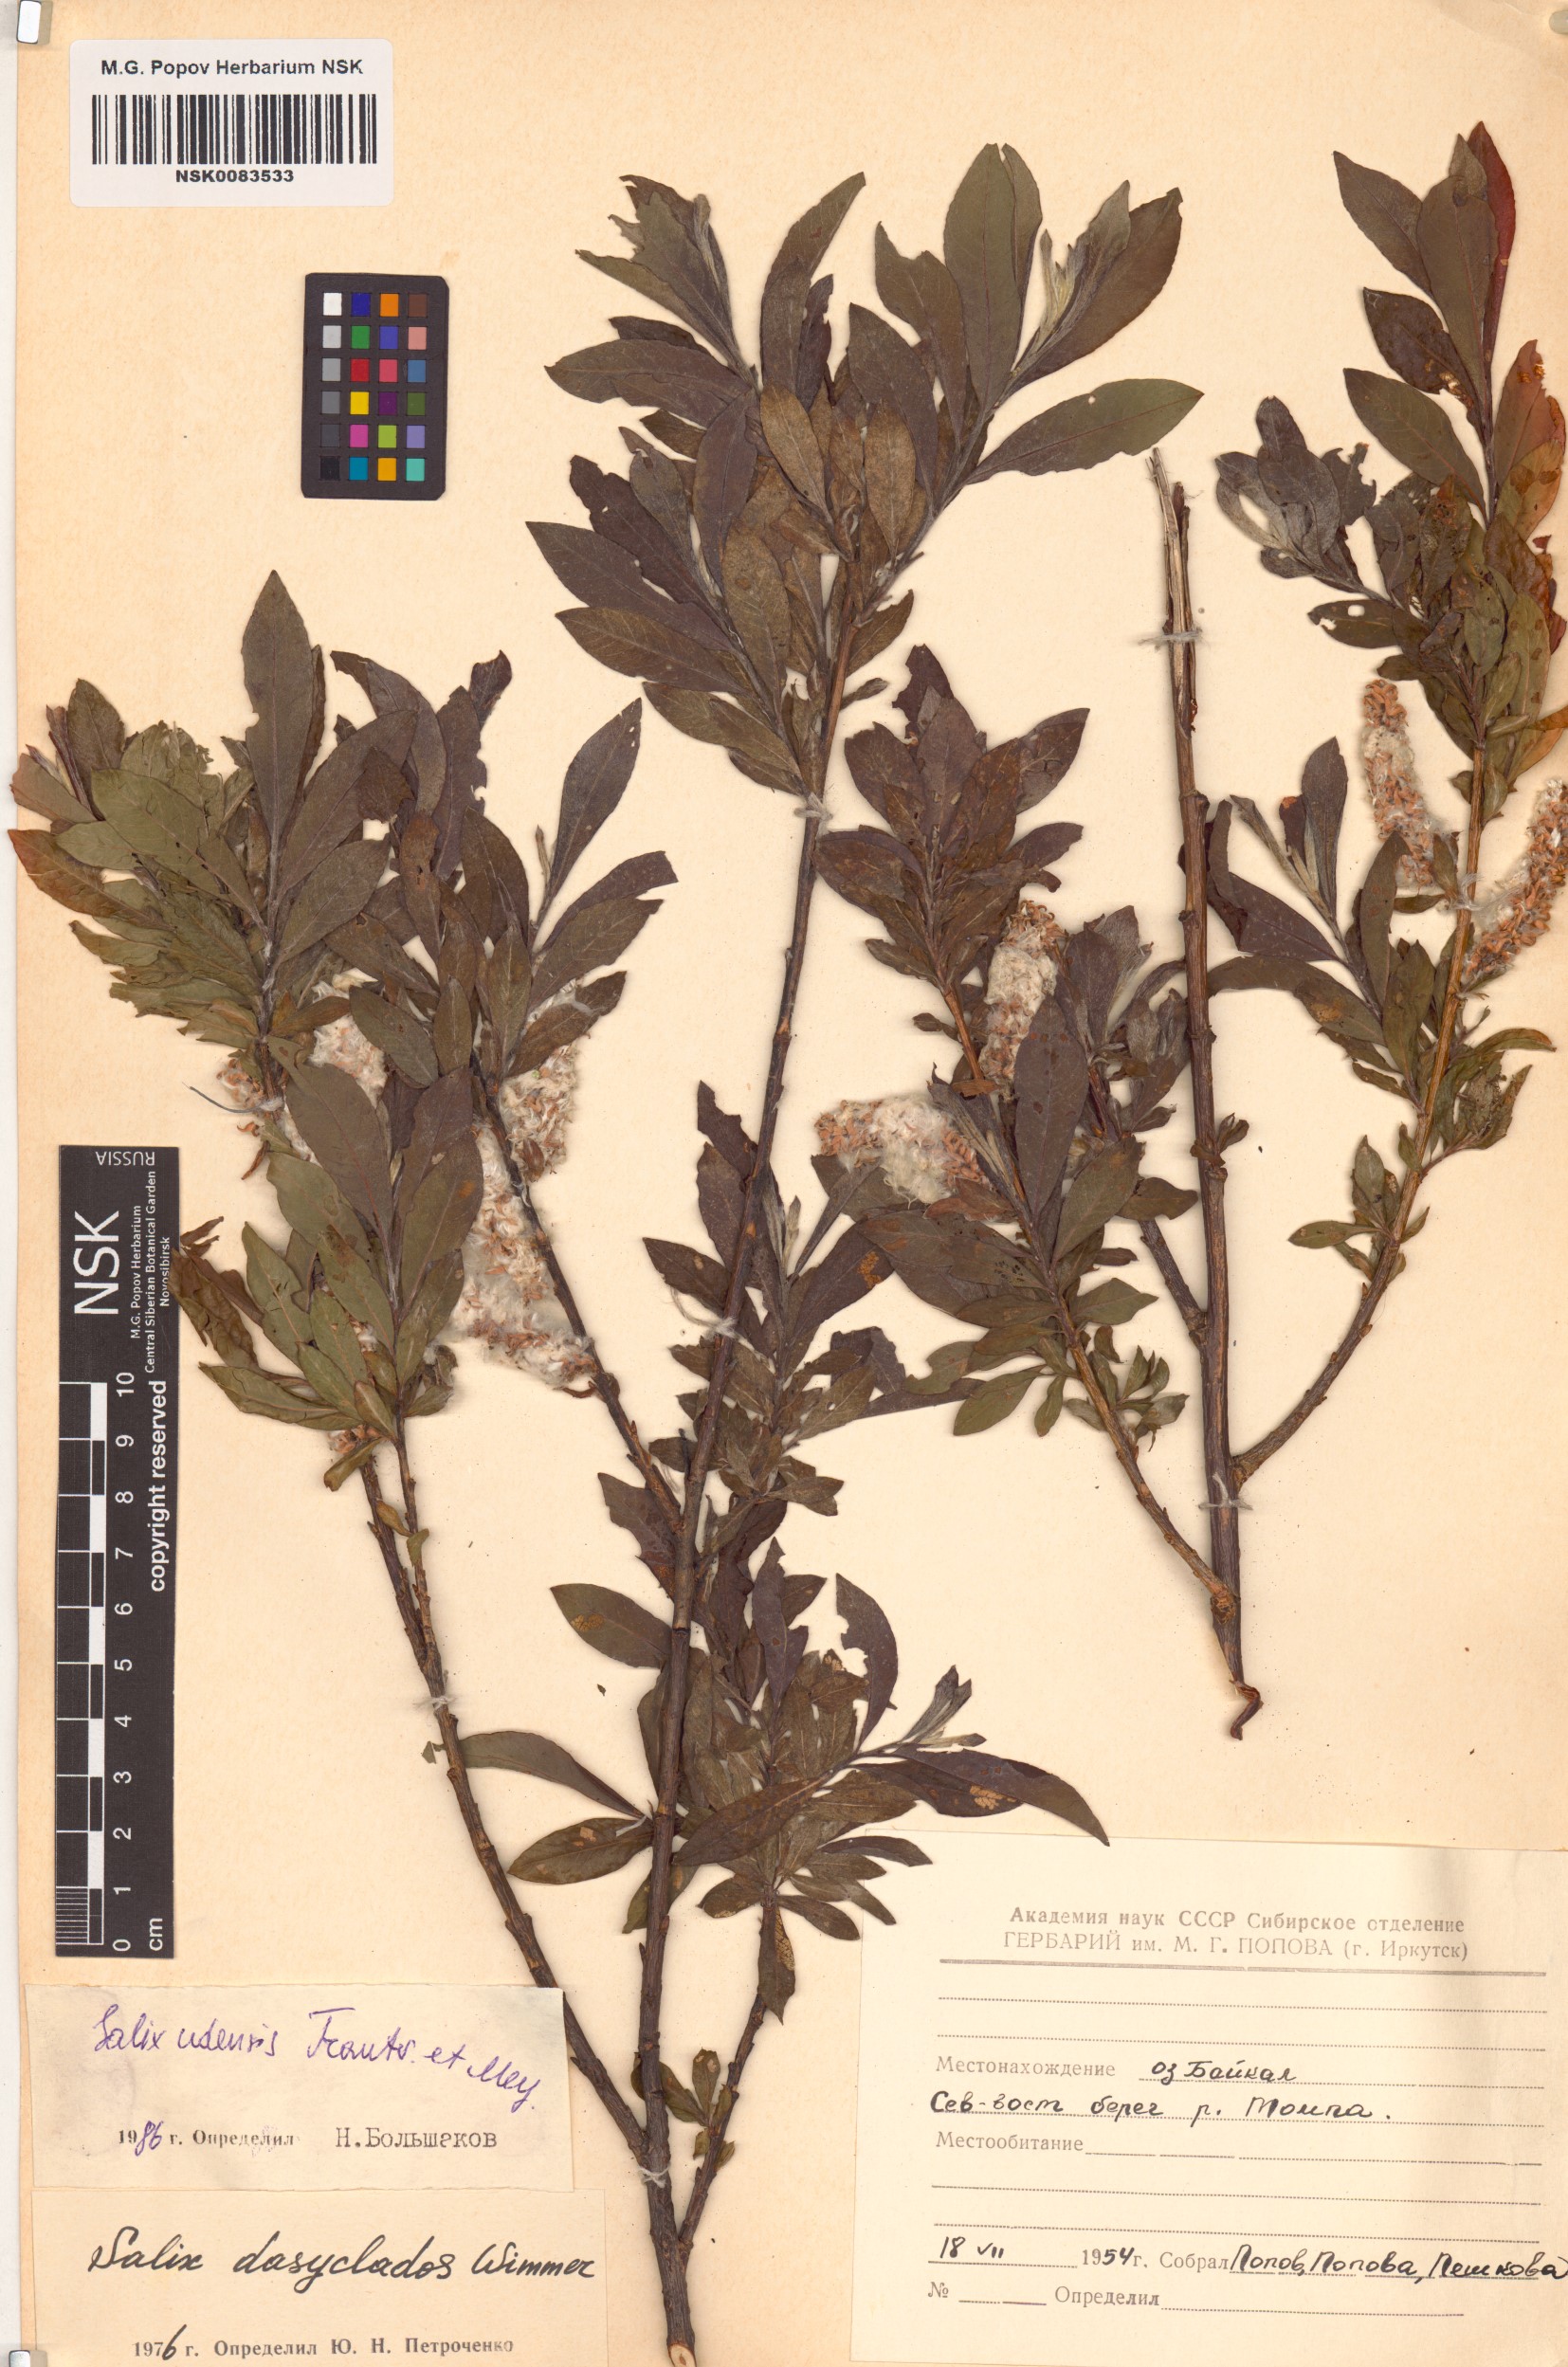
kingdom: Plantae
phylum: Tracheophyta
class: Magnoliopsida
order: Malpighiales
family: Salicaceae
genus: Salix
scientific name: Salix udensis
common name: Sachalin willow
